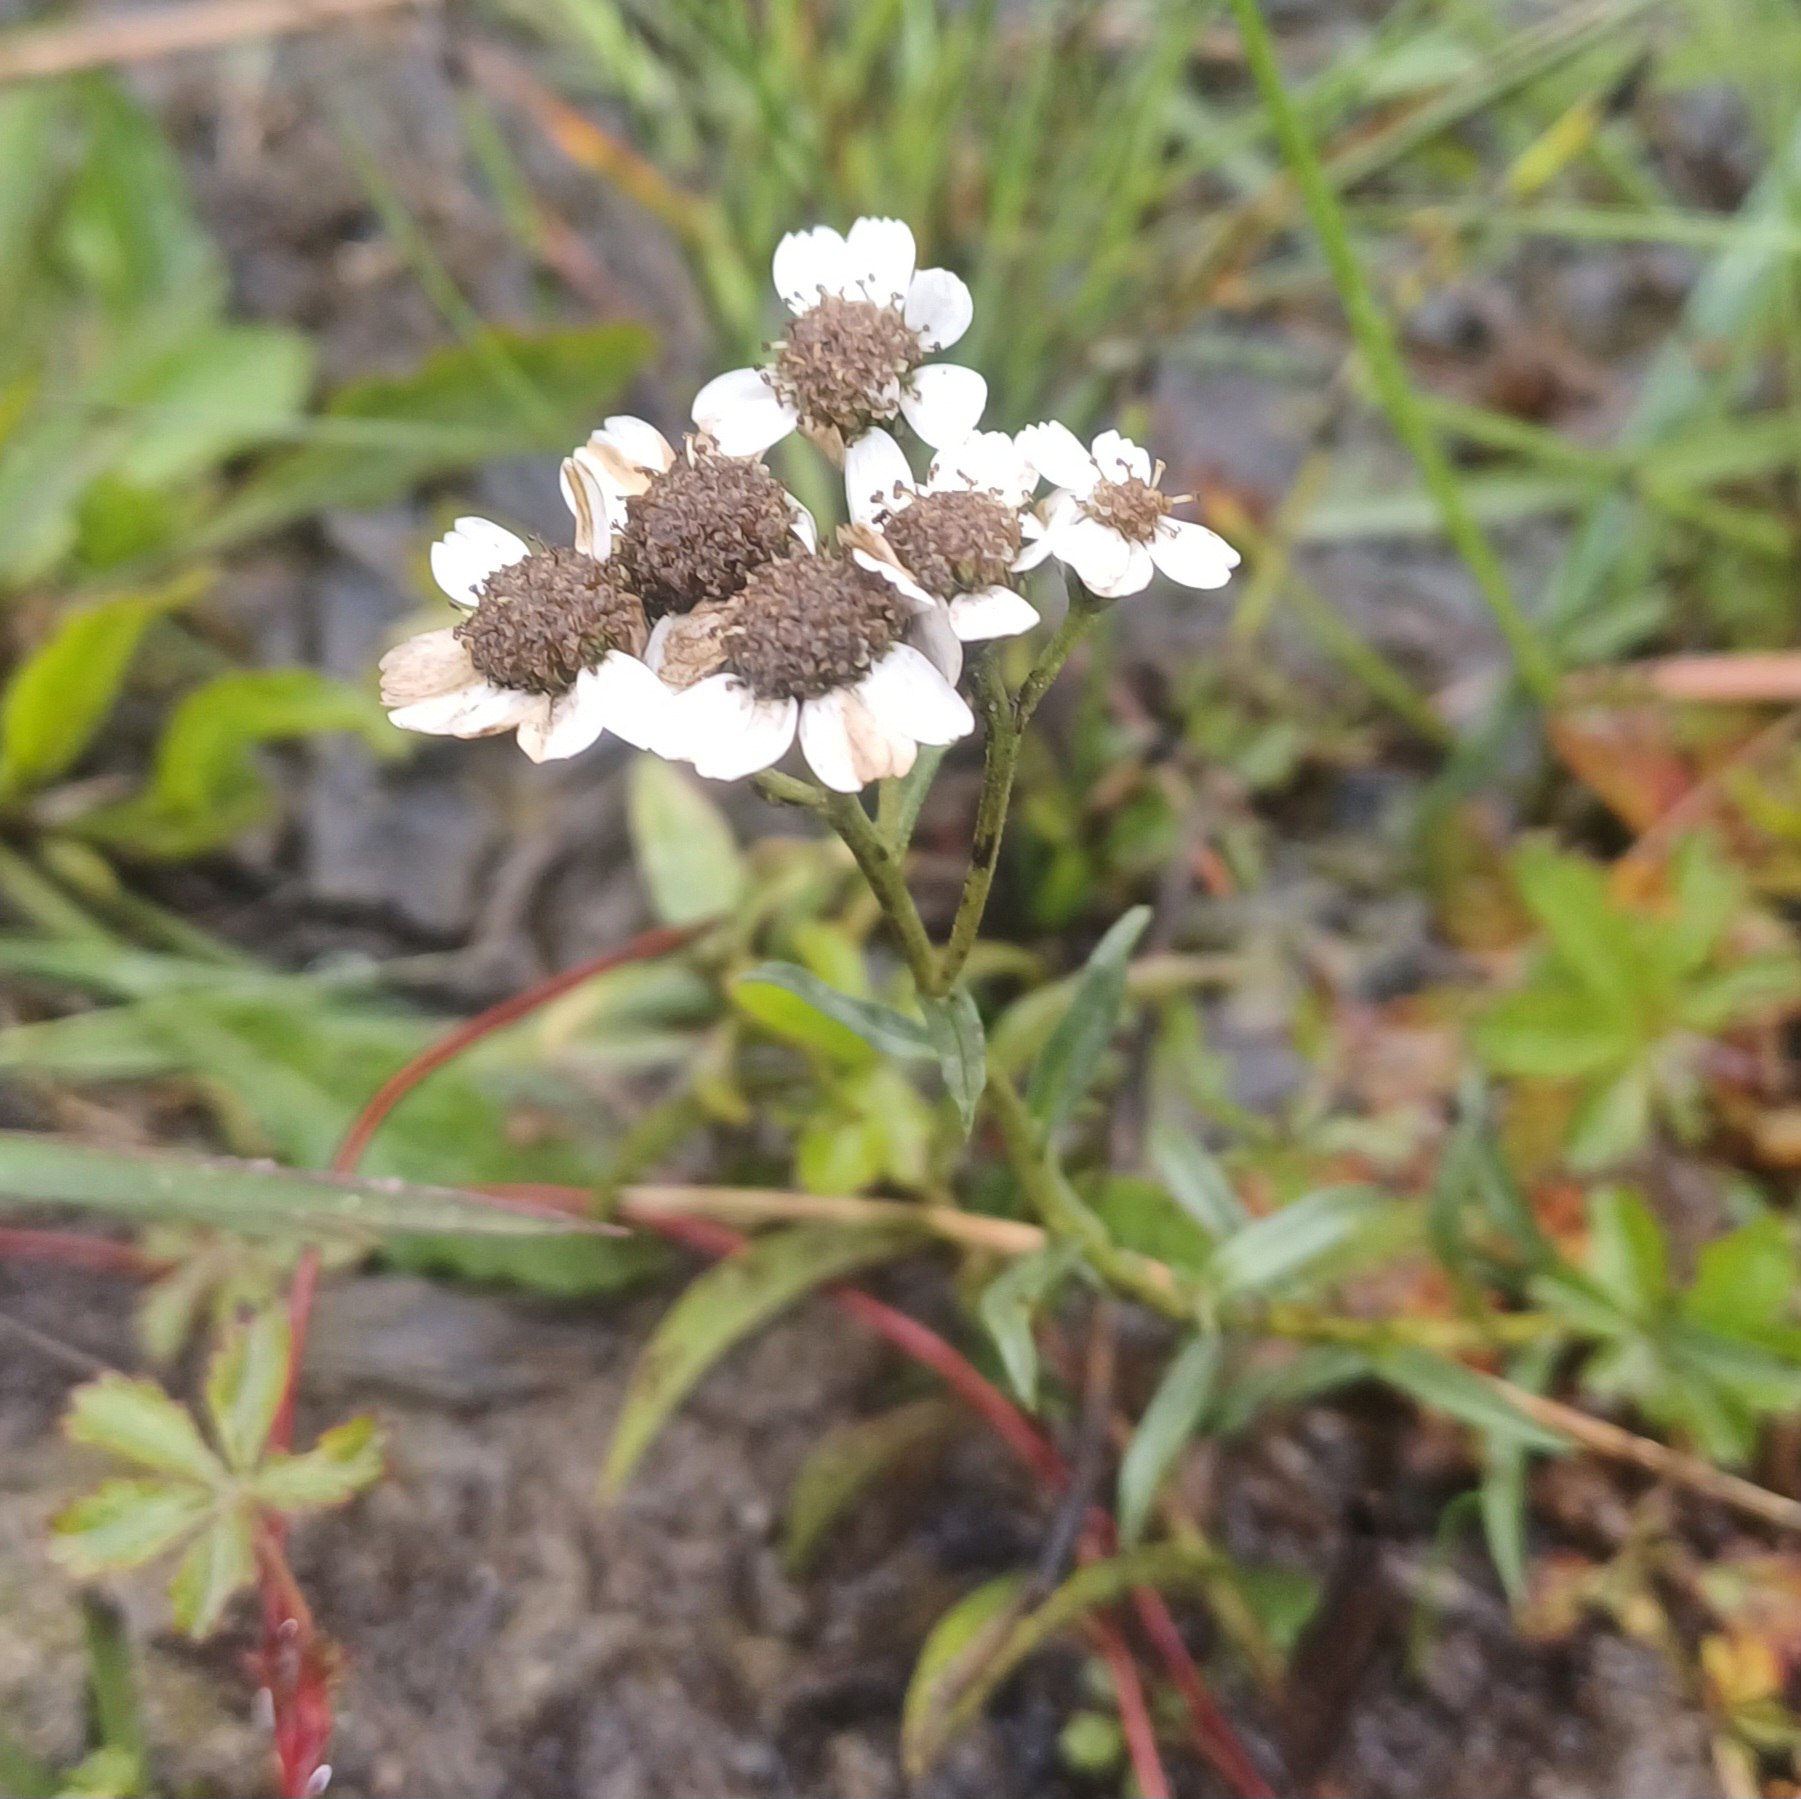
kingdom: Plantae
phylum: Tracheophyta
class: Magnoliopsida
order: Asterales
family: Asteraceae
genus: Achillea
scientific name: Achillea ptarmica
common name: Nyse-røllike
